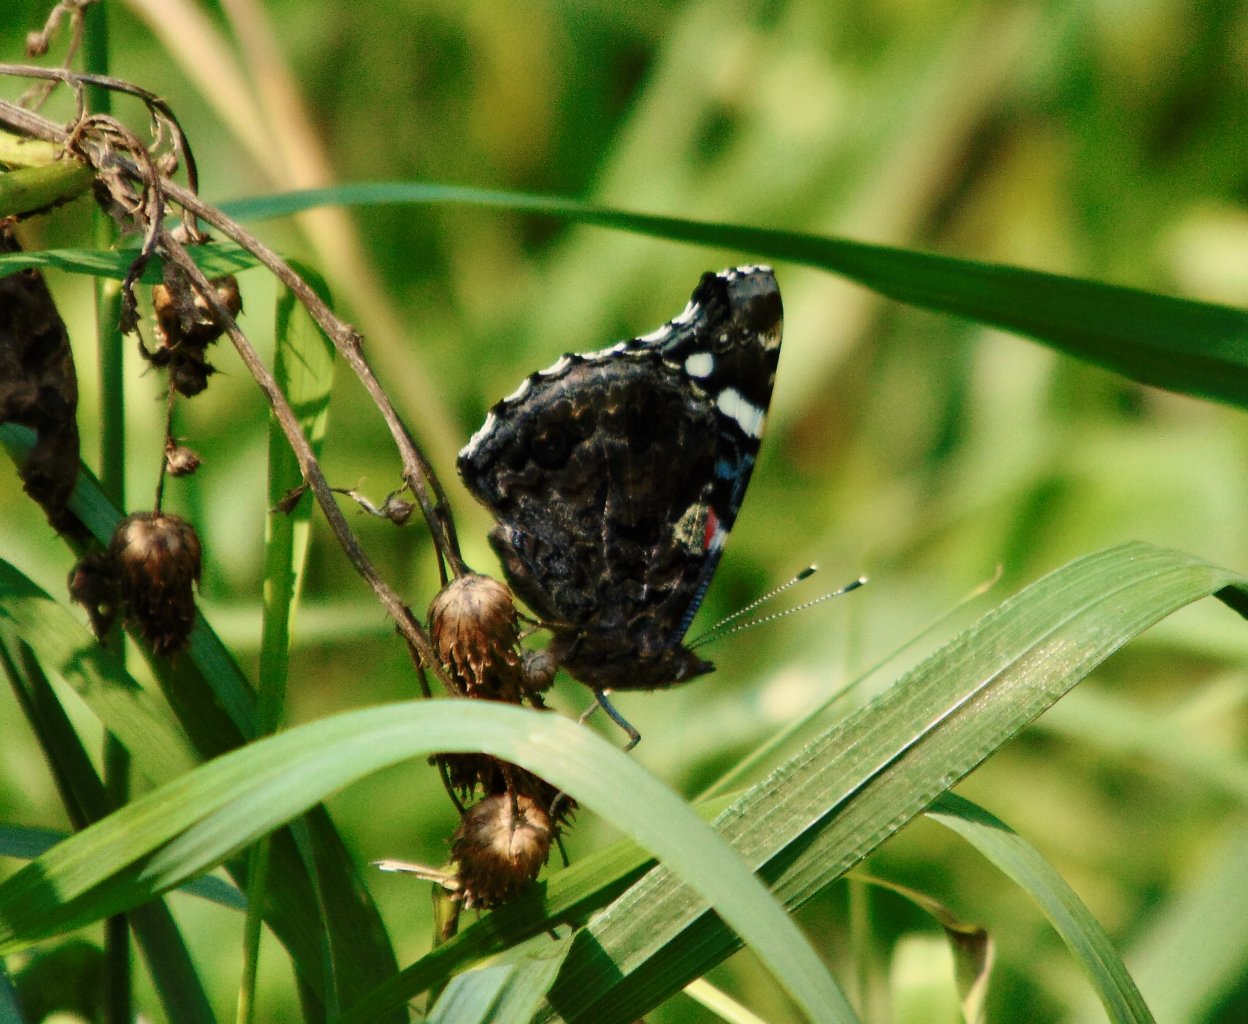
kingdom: Animalia
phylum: Arthropoda
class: Insecta
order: Lepidoptera
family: Nymphalidae
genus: Vanessa
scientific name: Vanessa atalanta
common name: Red Admiral
